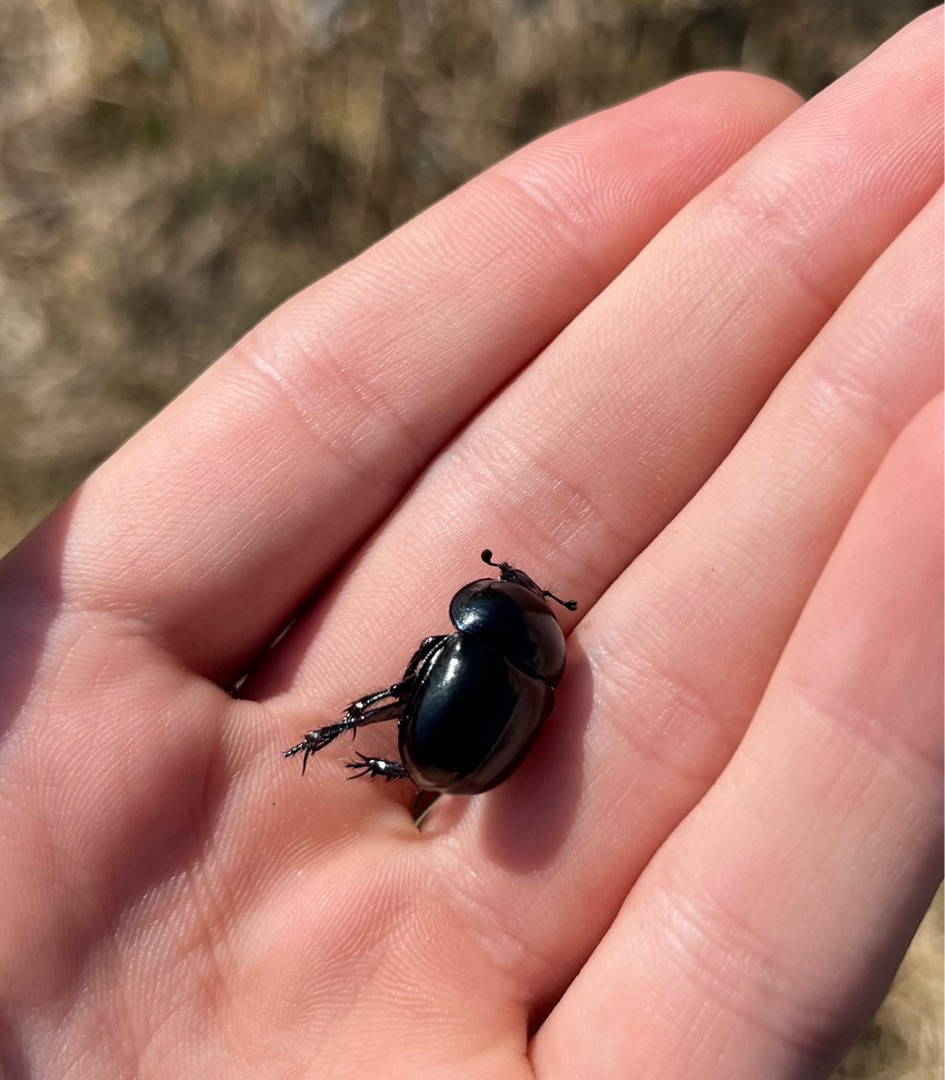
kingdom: Animalia
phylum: Arthropoda
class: Insecta
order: Coleoptera
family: Geotrupidae
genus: Trypocopris
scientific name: Trypocopris vernalis
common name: Glat skarnbasse
